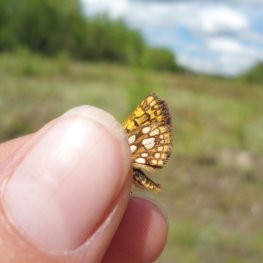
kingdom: Animalia
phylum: Arthropoda
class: Insecta
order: Lepidoptera
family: Hesperiidae
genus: Carterocephalus
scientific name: Carterocephalus palaemon
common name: Chequered Skipper
